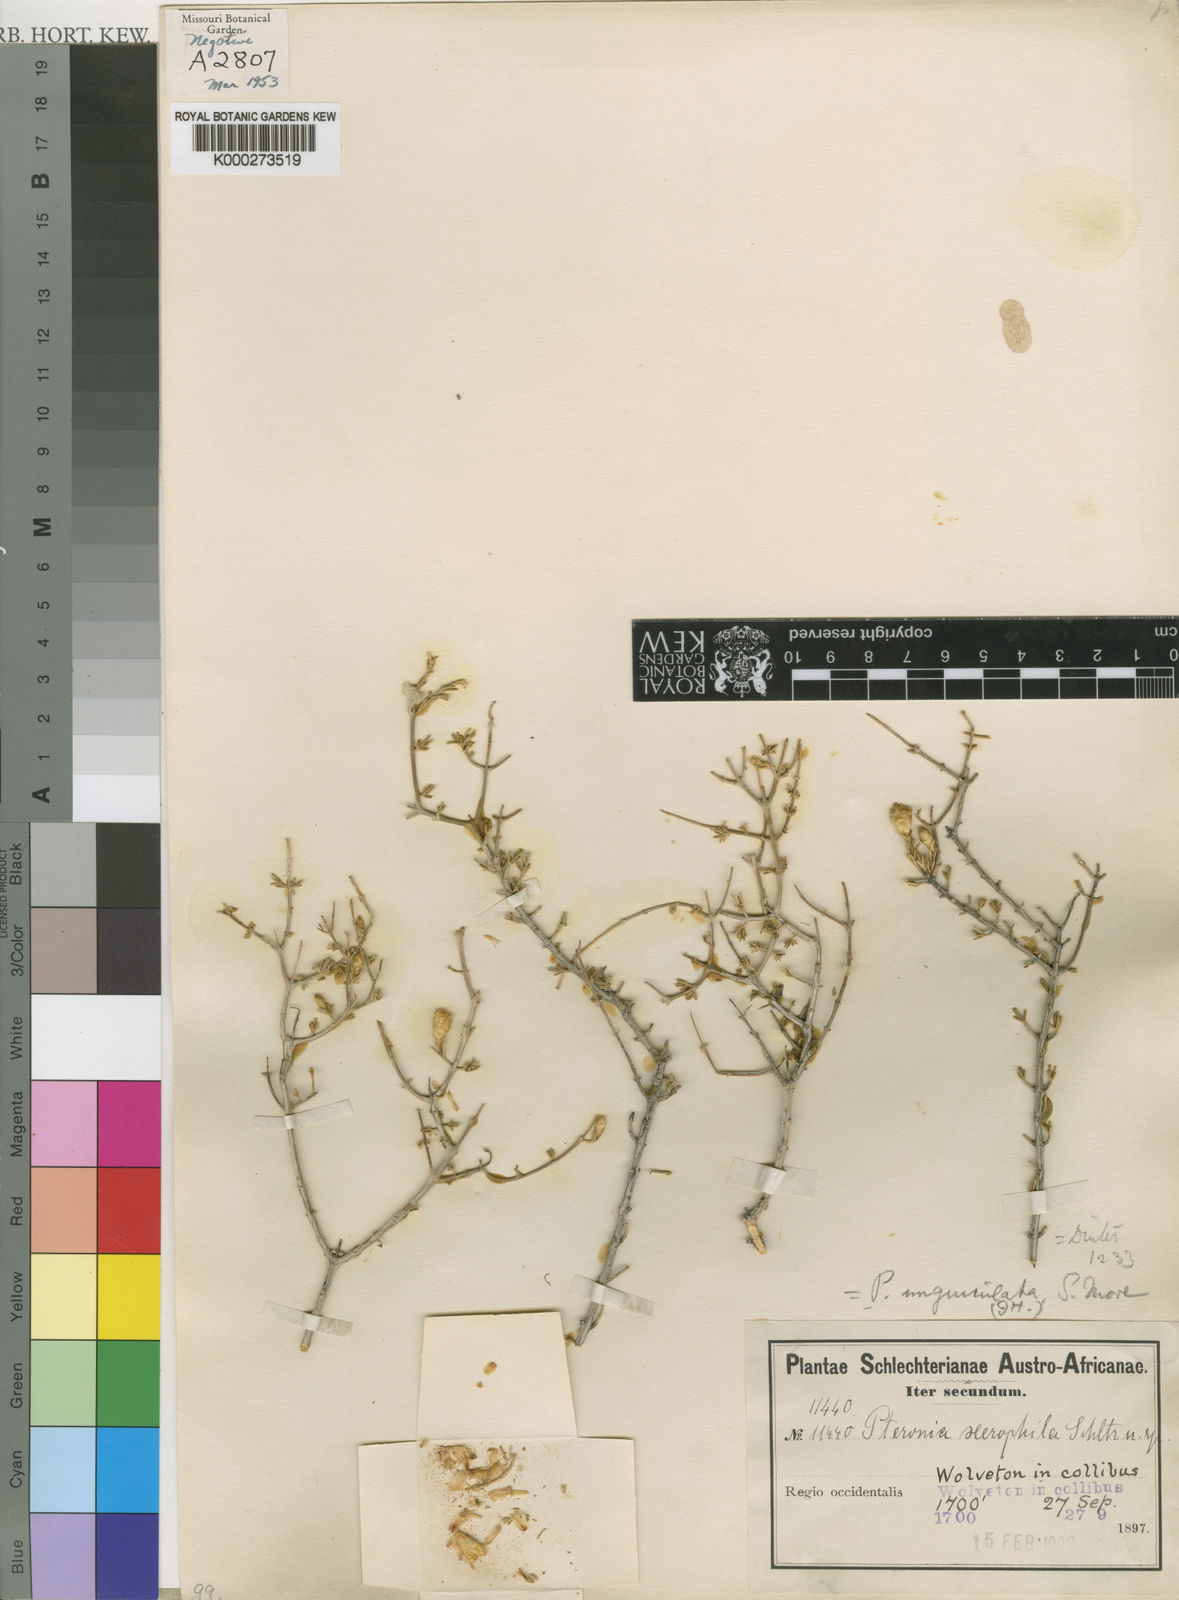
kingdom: Plantae
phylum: Tracheophyta
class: Magnoliopsida
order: Asterales
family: Asteraceae
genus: Pteronia
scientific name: Pteronia unguiculata
